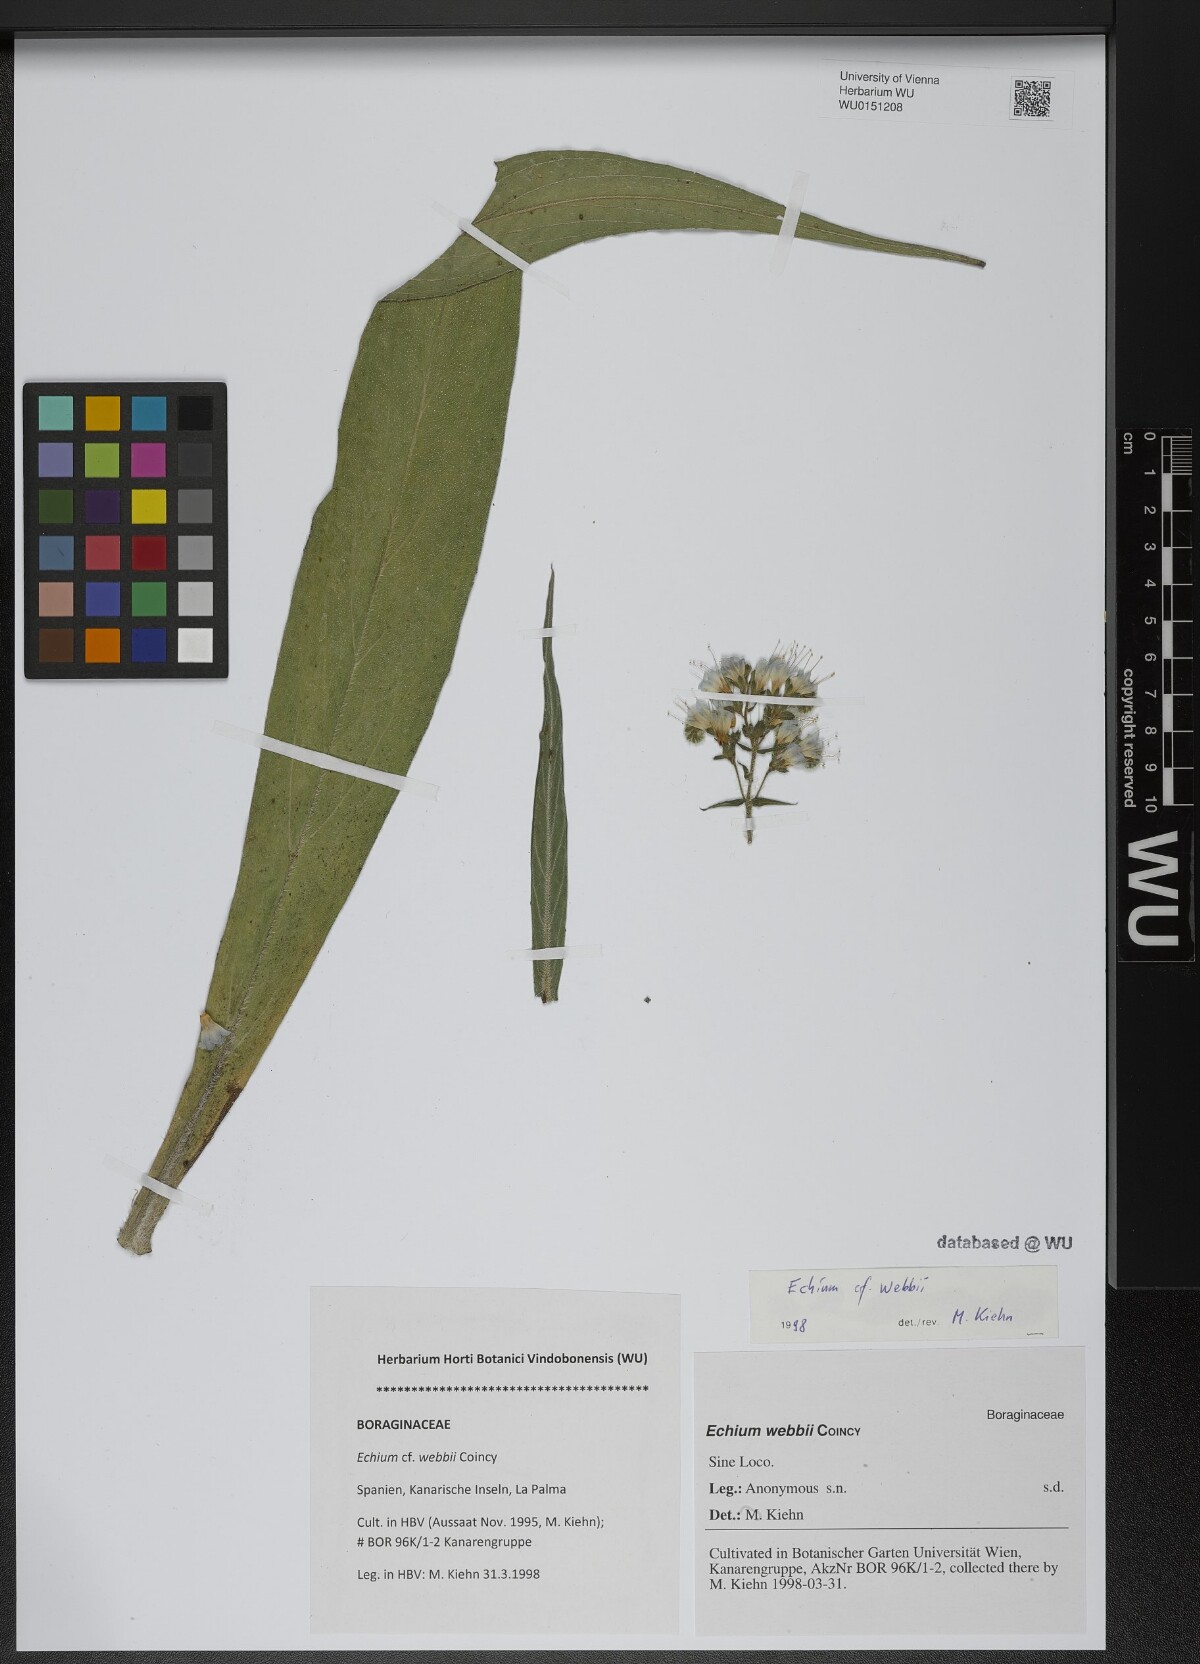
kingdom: Plantae
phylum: Tracheophyta
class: Magnoliopsida
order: Boraginales
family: Boraginaceae
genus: Echium
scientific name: Echium webbii
